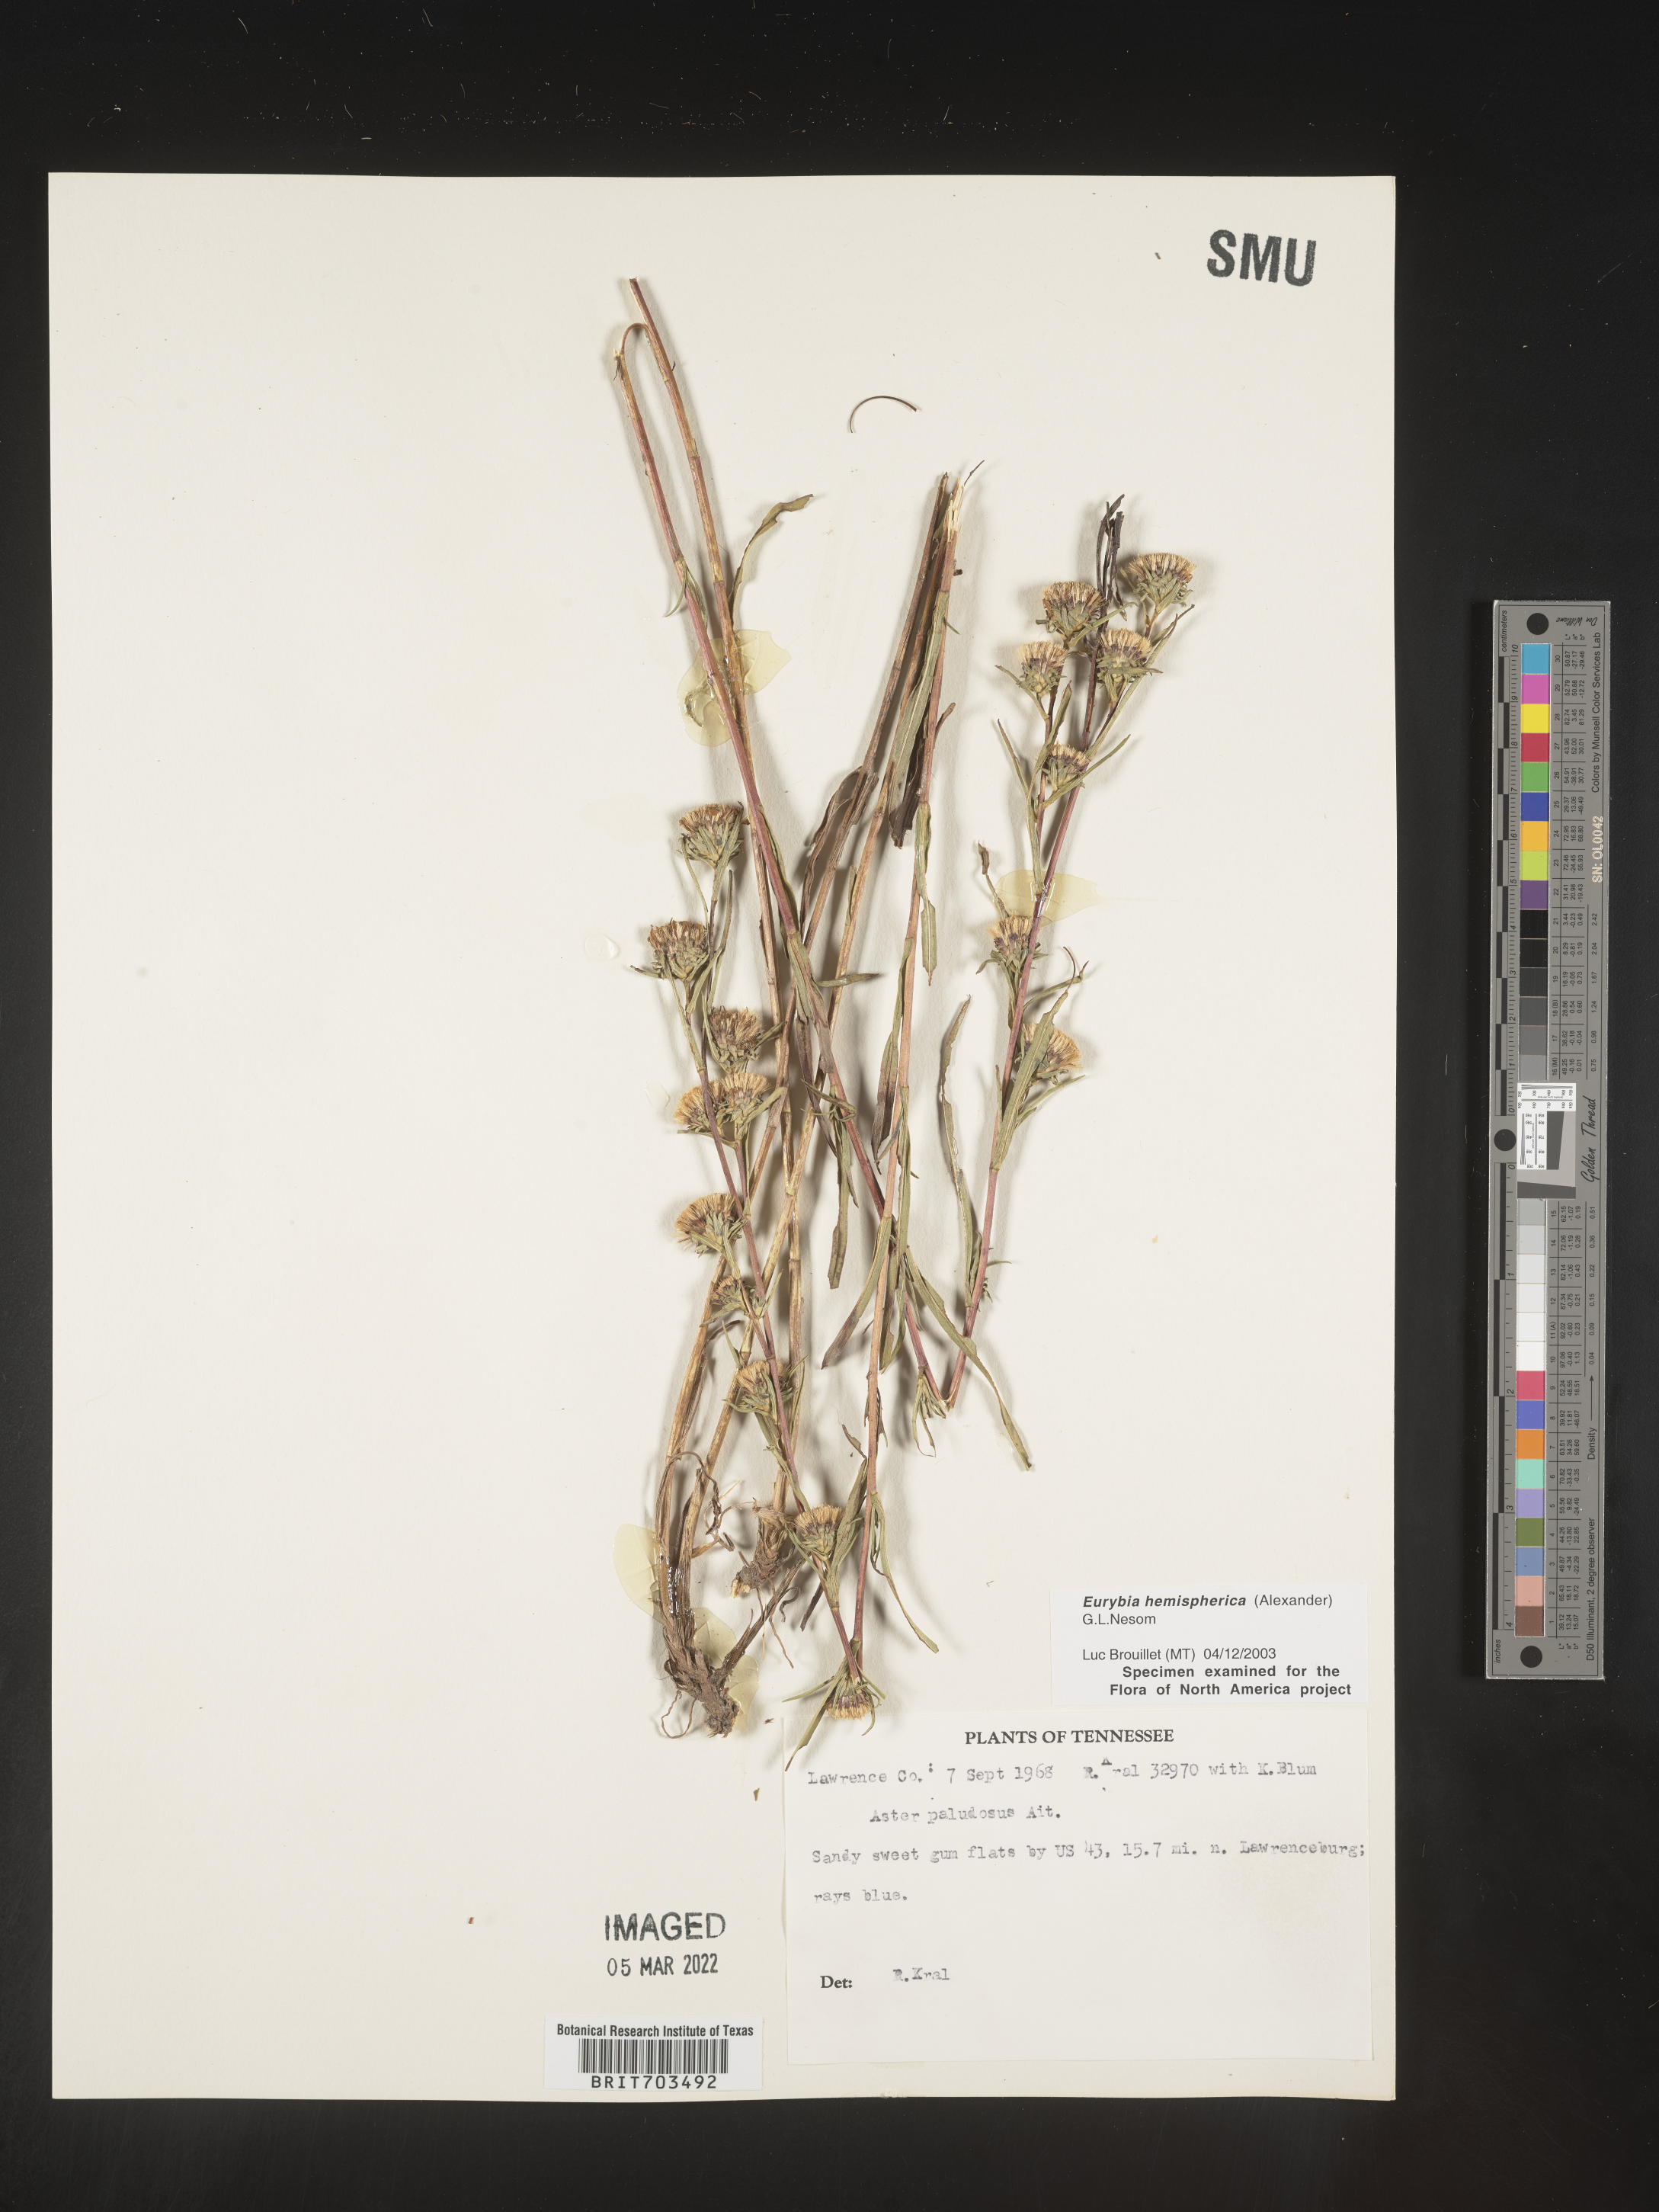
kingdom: Plantae
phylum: Tracheophyta
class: Magnoliopsida
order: Asterales
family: Asteraceae
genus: Eurybia
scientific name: Eurybia hemispherica
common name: Showy aster
